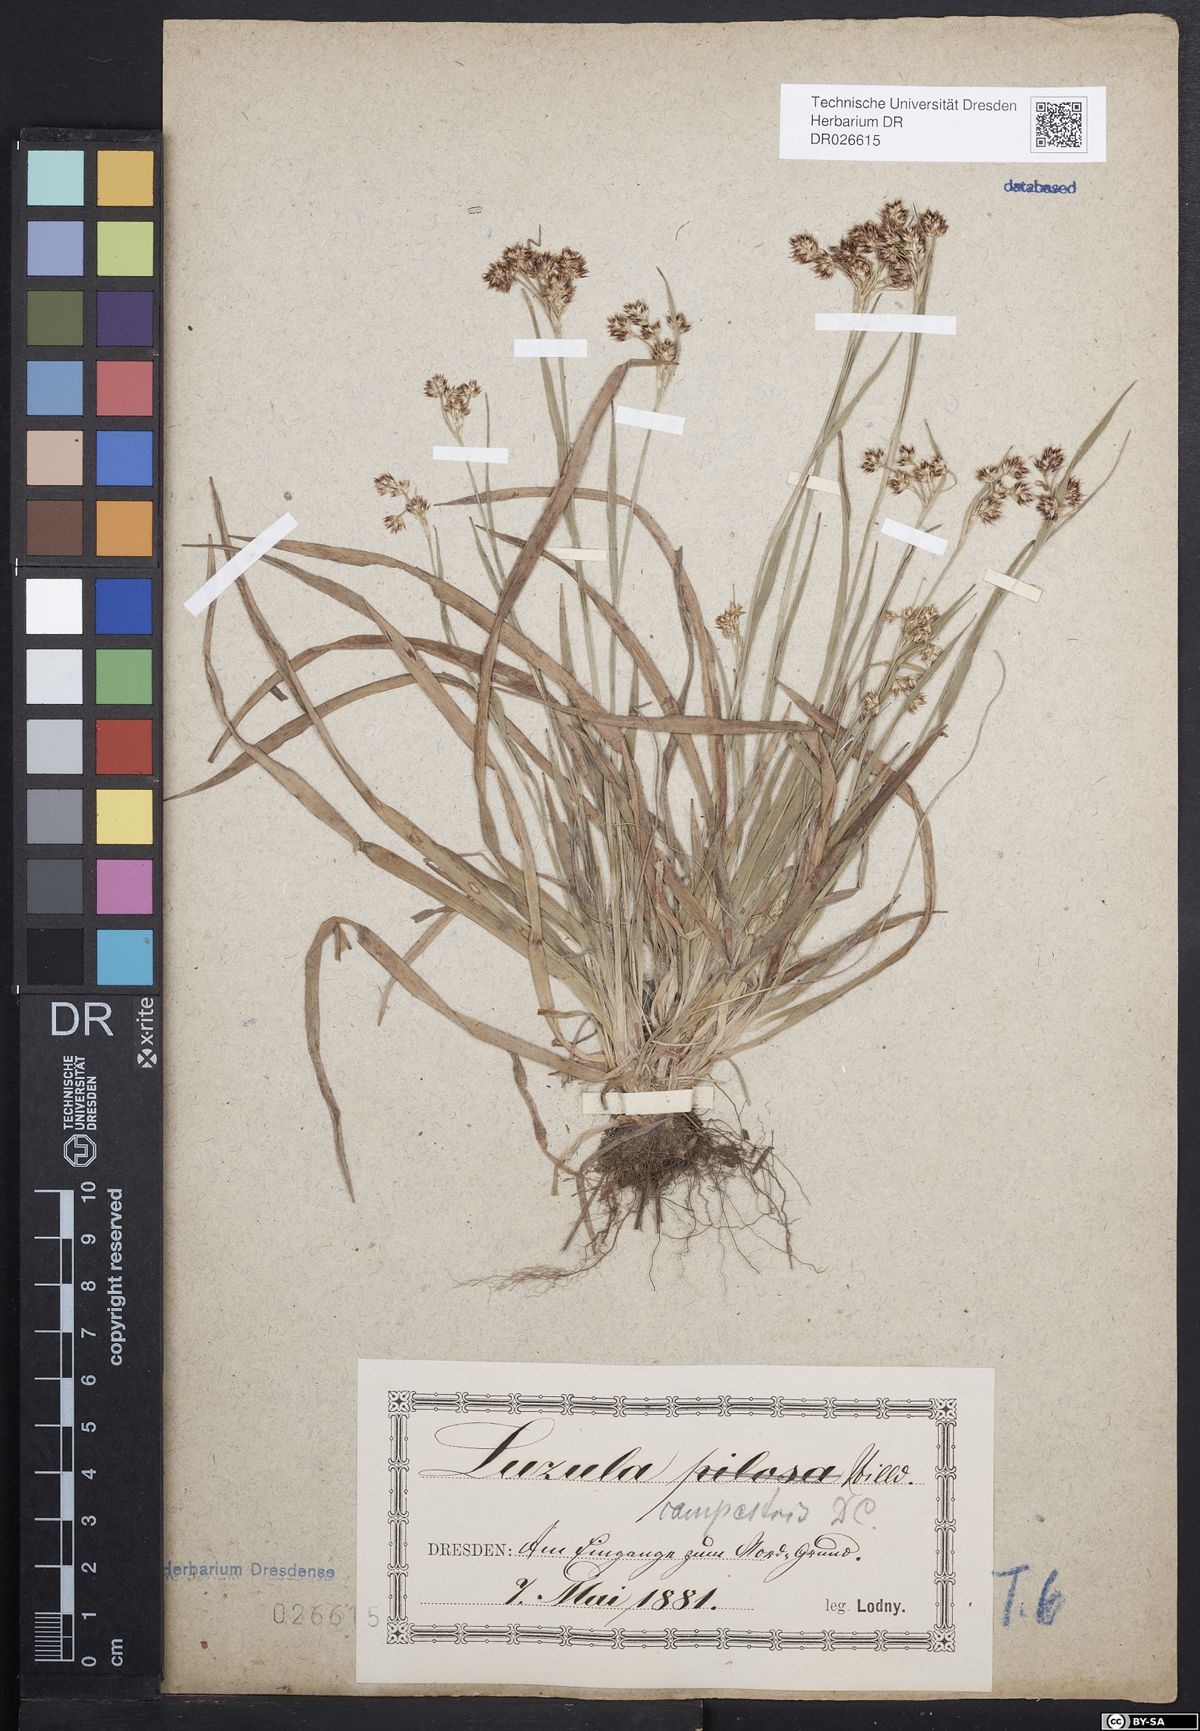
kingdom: Plantae
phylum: Tracheophyta
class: Liliopsida
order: Poales
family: Juncaceae
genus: Luzula
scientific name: Luzula campestris
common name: Field wood-rush
